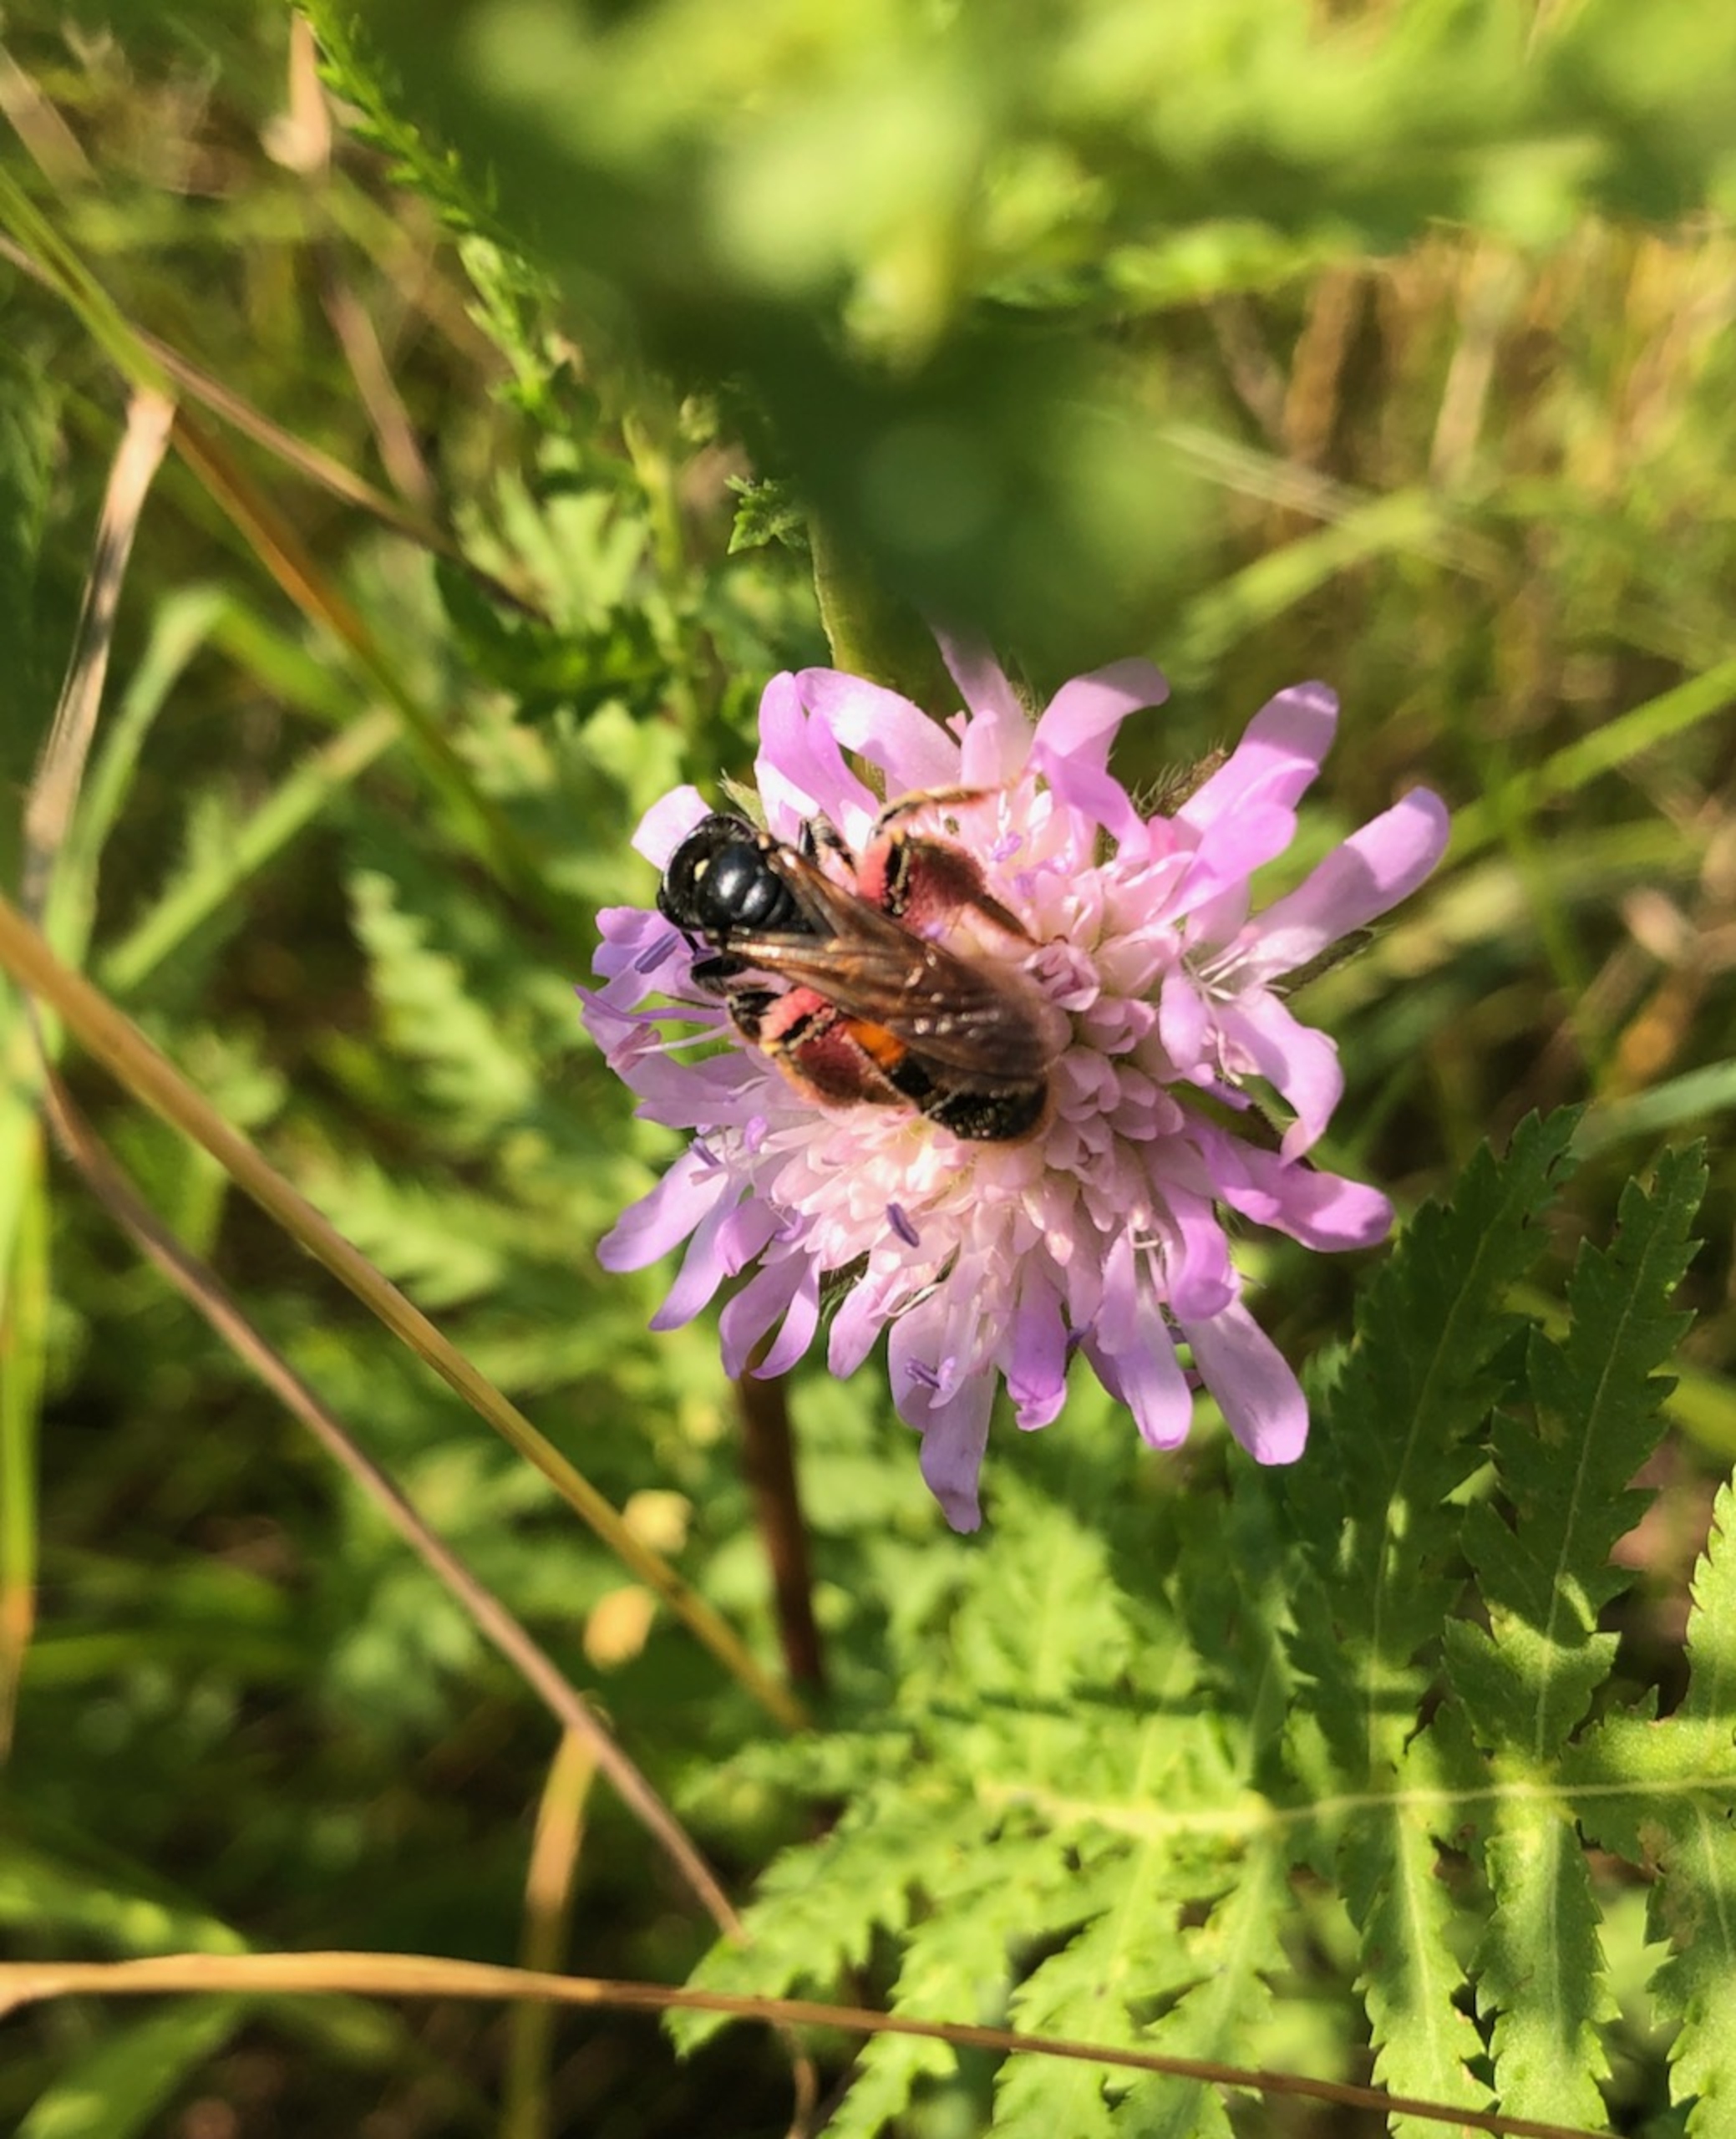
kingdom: Animalia
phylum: Arthropoda
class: Insecta
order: Hymenoptera
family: Andrenidae
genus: Andrena
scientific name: Andrena hattorfiana
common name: Blåhatjordbi
